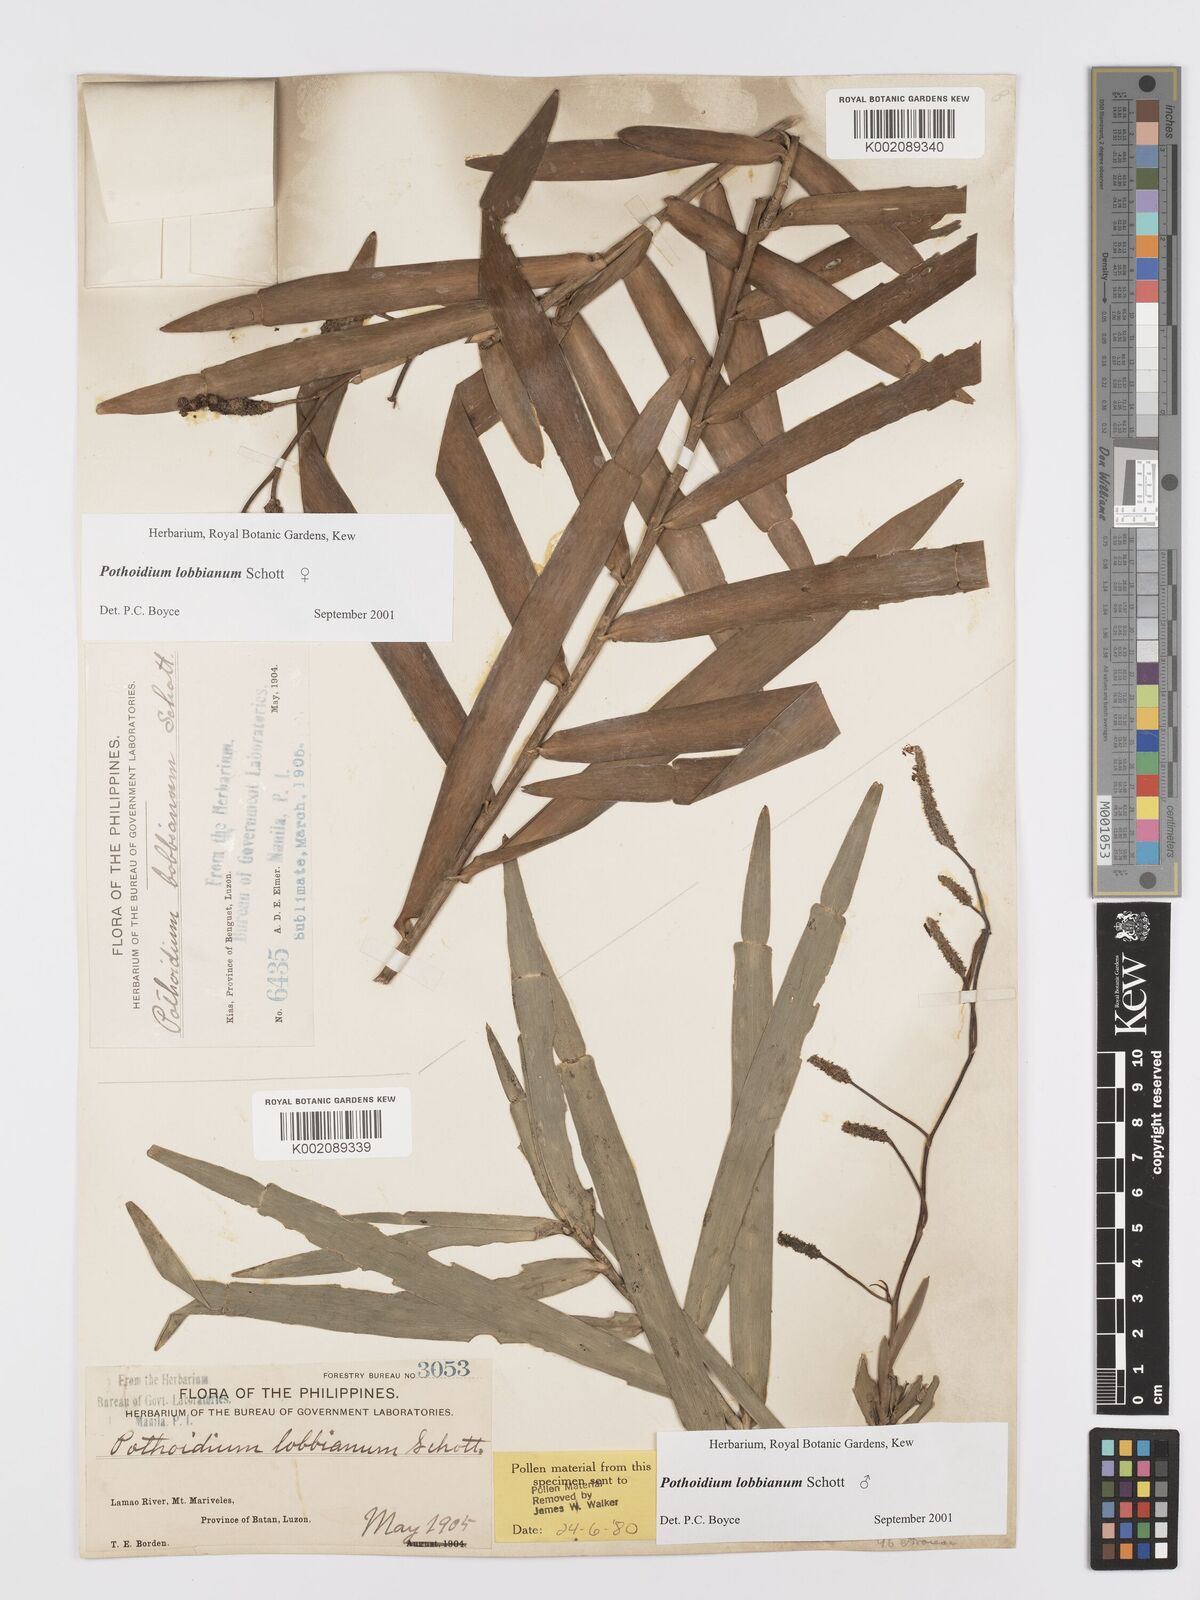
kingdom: Plantae
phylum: Tracheophyta
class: Liliopsida
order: Alismatales
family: Araceae
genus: Pothoidium
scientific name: Pothoidium lobbianum
